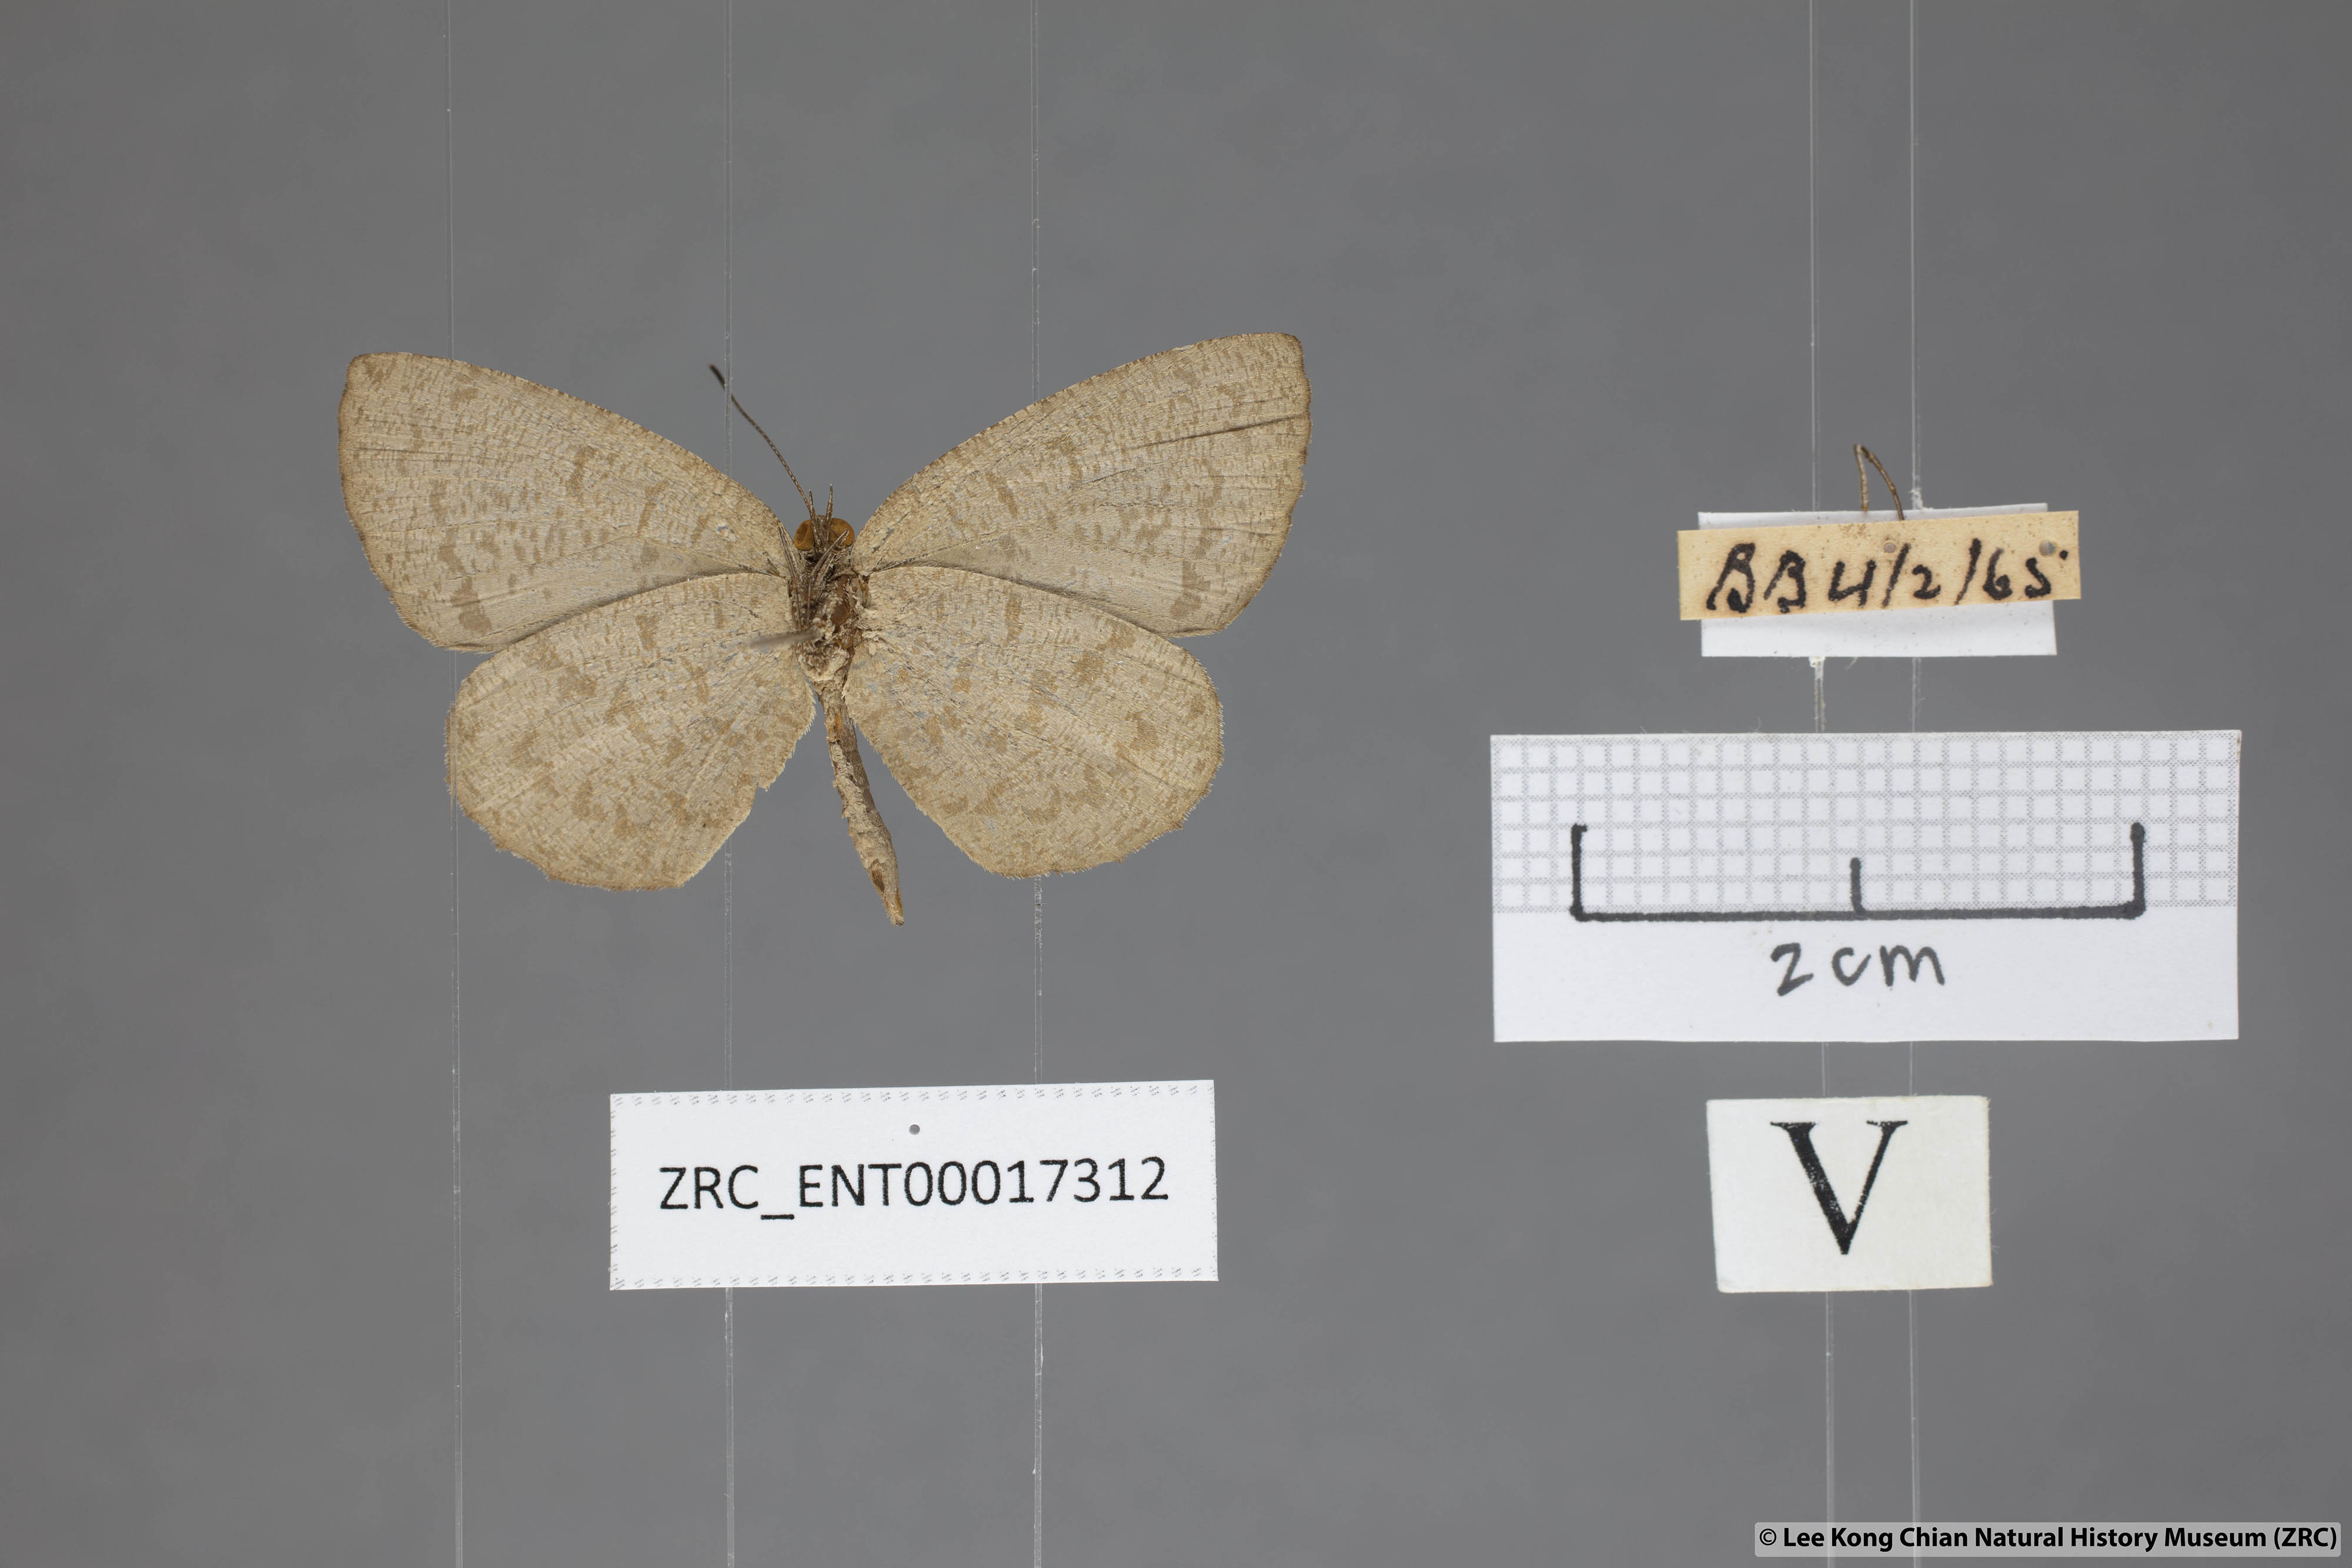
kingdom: Animalia
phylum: Arthropoda
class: Insecta
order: Lepidoptera
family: Lycaenidae
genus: Allotinus
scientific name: Allotinus subviolaceus
